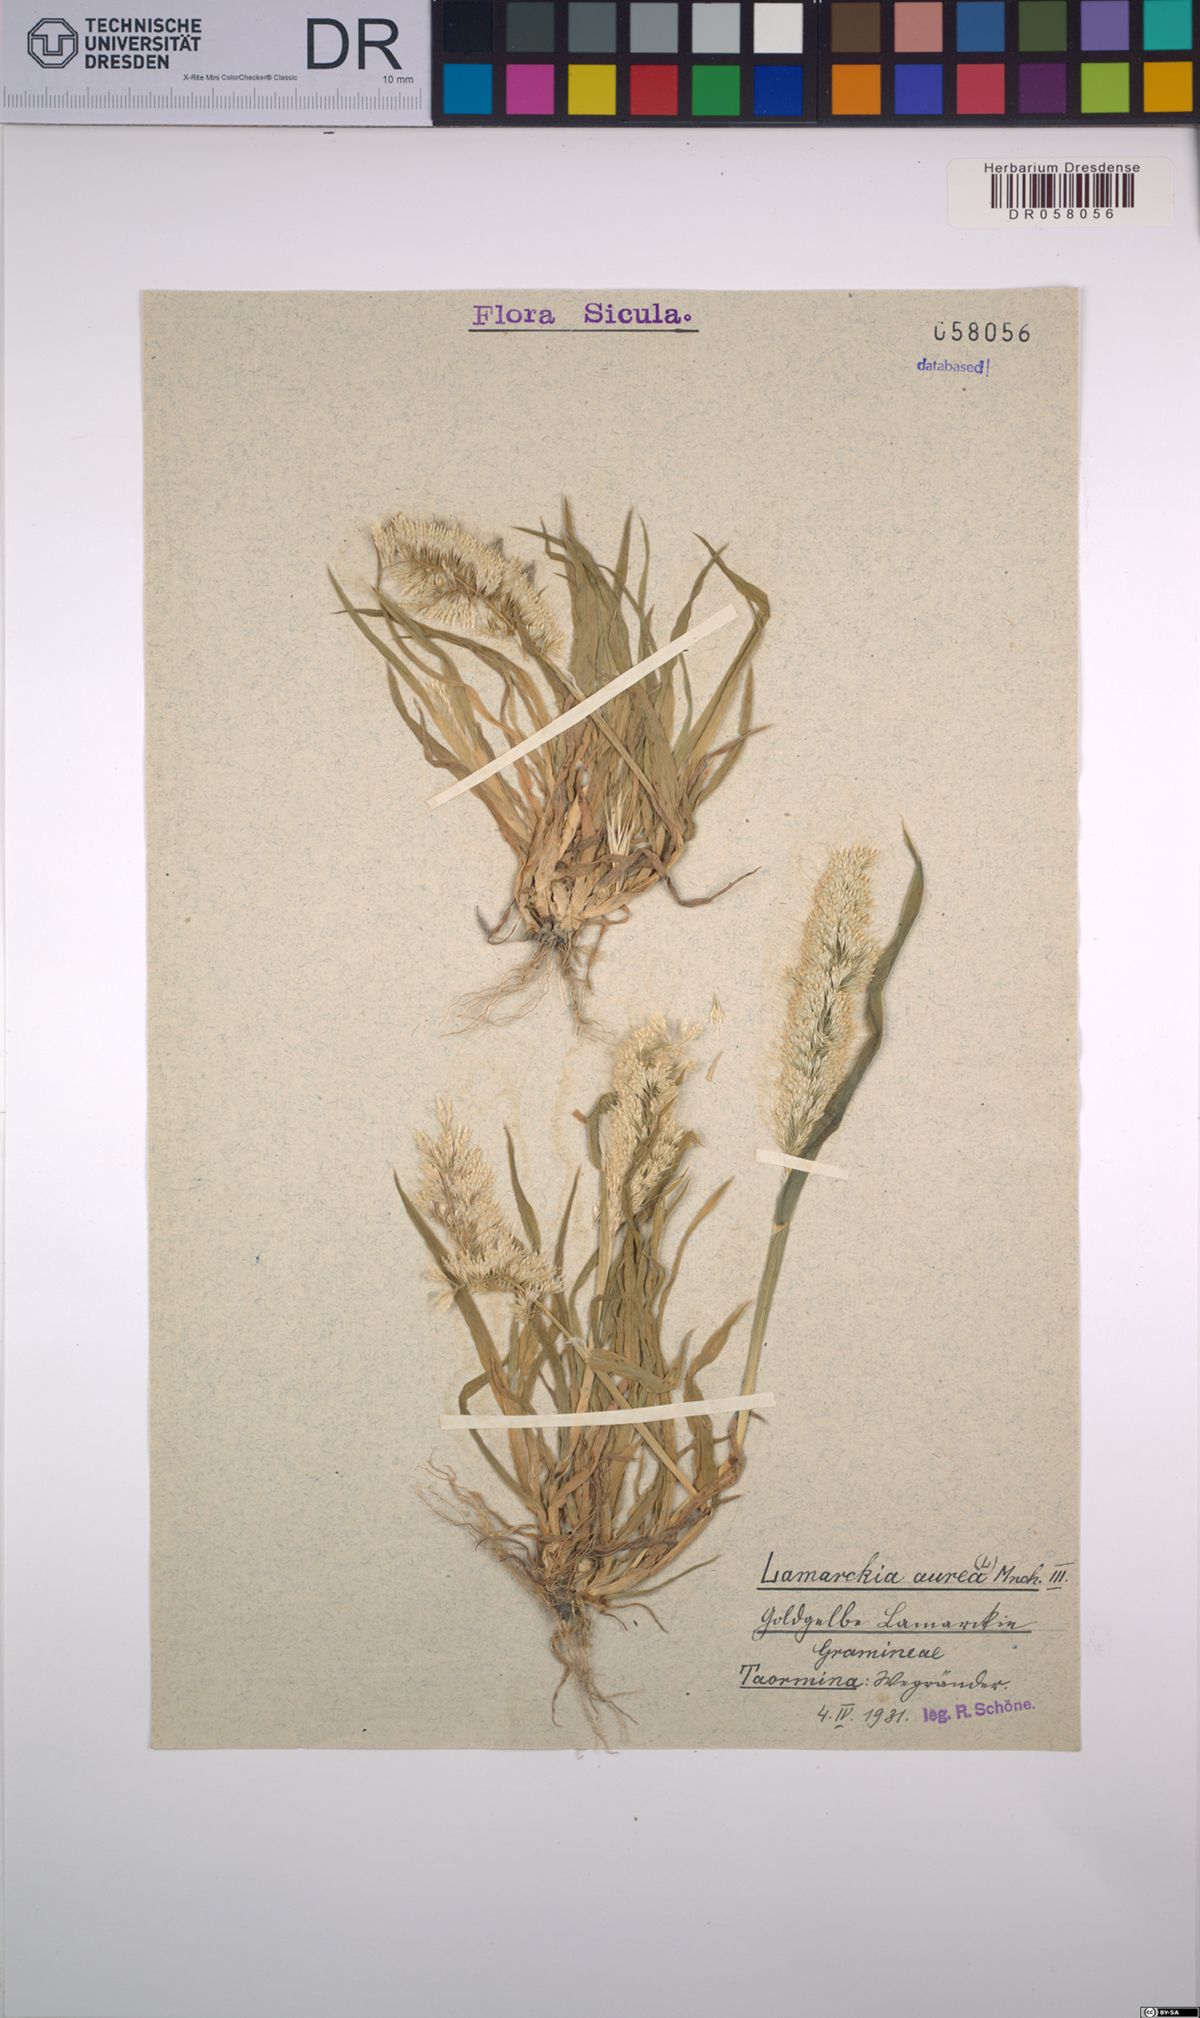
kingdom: Plantae
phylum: Tracheophyta
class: Liliopsida
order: Poales
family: Poaceae
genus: Lamarckia
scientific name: Lamarckia aurea
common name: Golden dog's-tail
